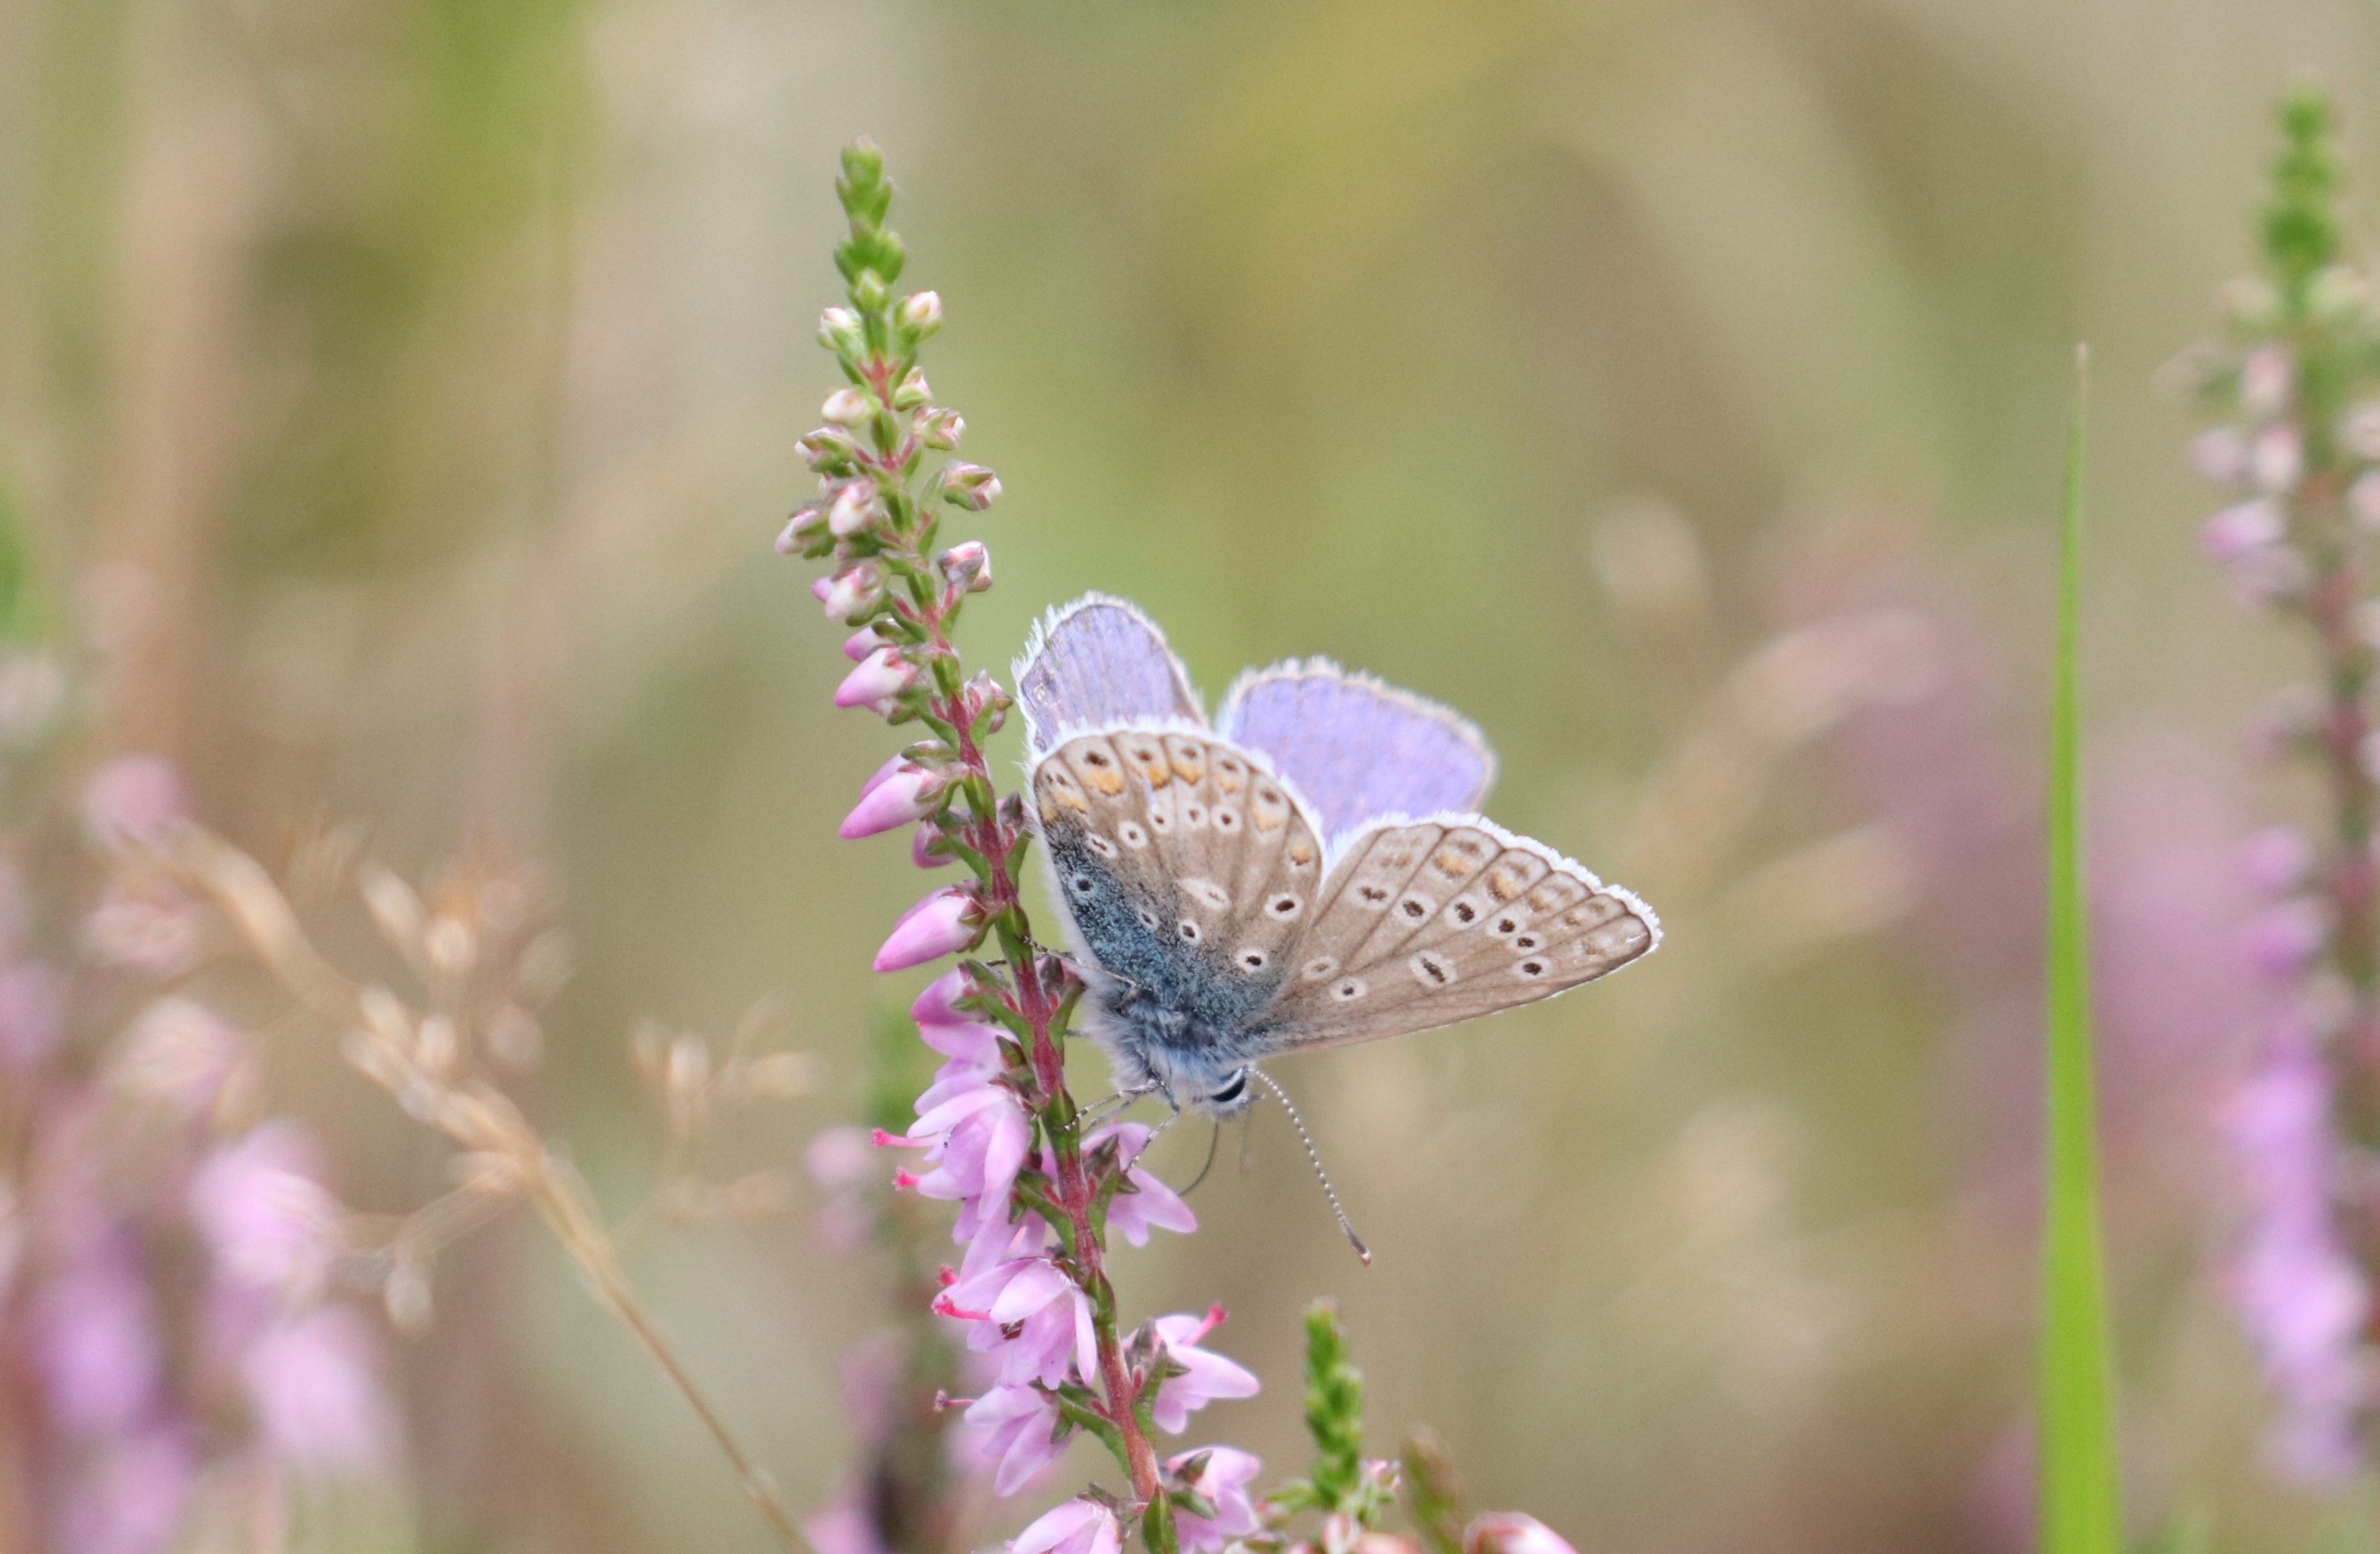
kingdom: Animalia
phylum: Arthropoda
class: Insecta
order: Lepidoptera
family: Lycaenidae
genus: Polyommatus
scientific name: Polyommatus icarus
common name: Almindelig blåfugl
